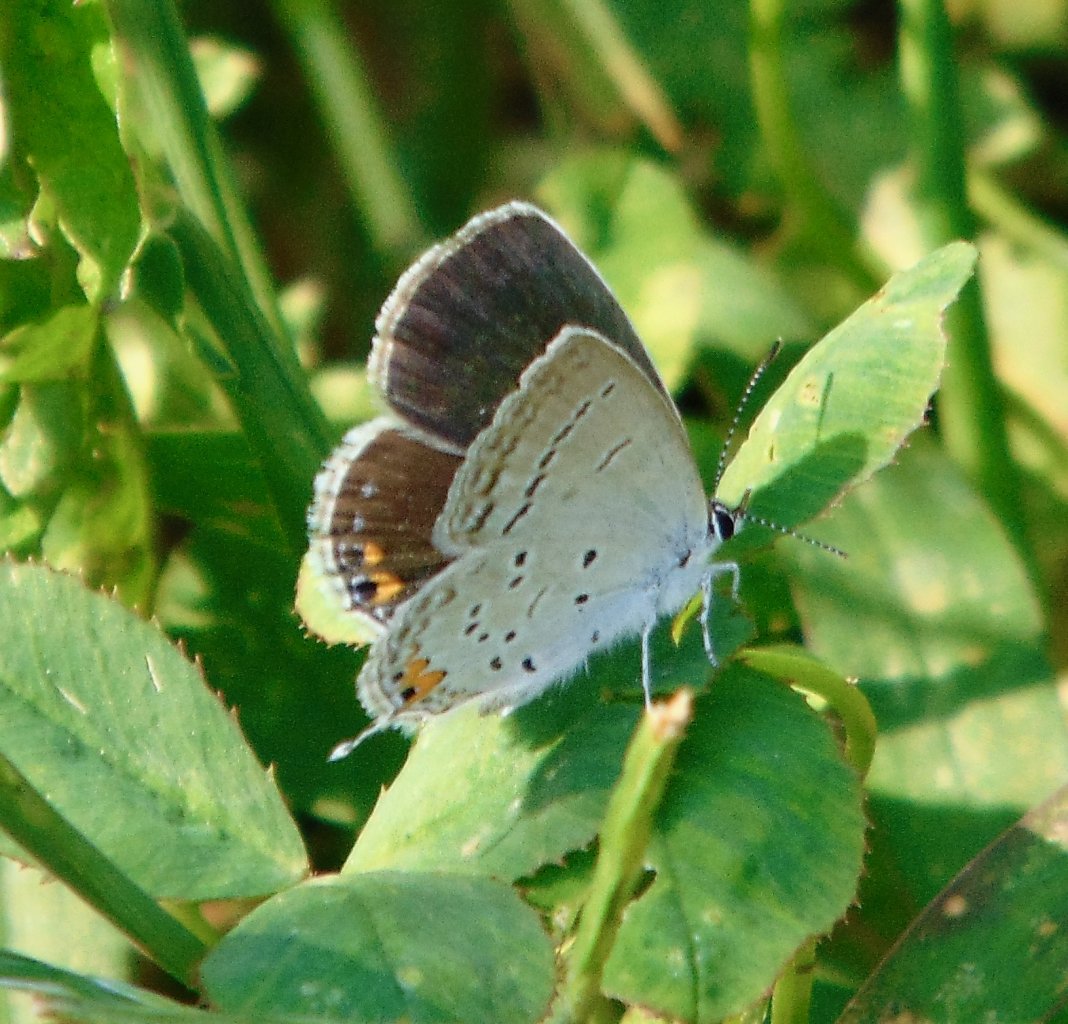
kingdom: Animalia
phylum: Arthropoda
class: Insecta
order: Lepidoptera
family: Lycaenidae
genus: Elkalyce
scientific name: Elkalyce comyntas
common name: Eastern Tailed-Blue
